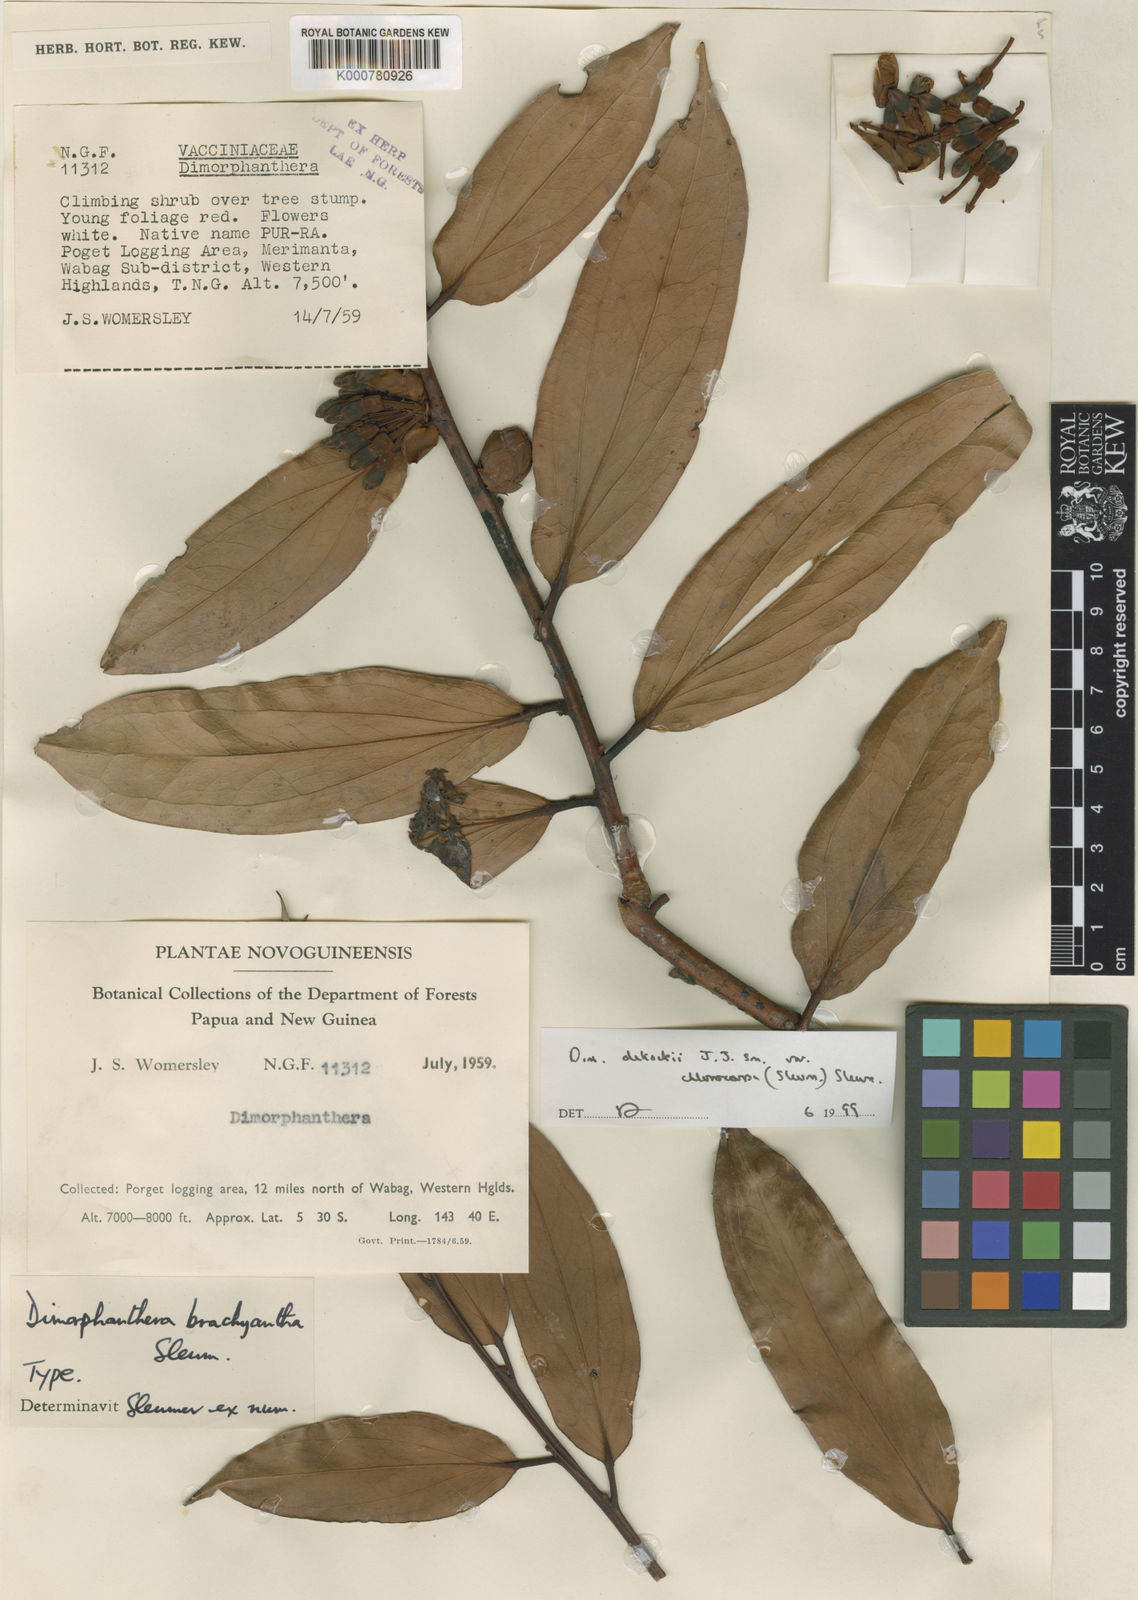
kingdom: Plantae
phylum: Tracheophyta
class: Magnoliopsida
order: Ericales
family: Ericaceae
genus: Dimorphanthera
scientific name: Dimorphanthera dekockii
